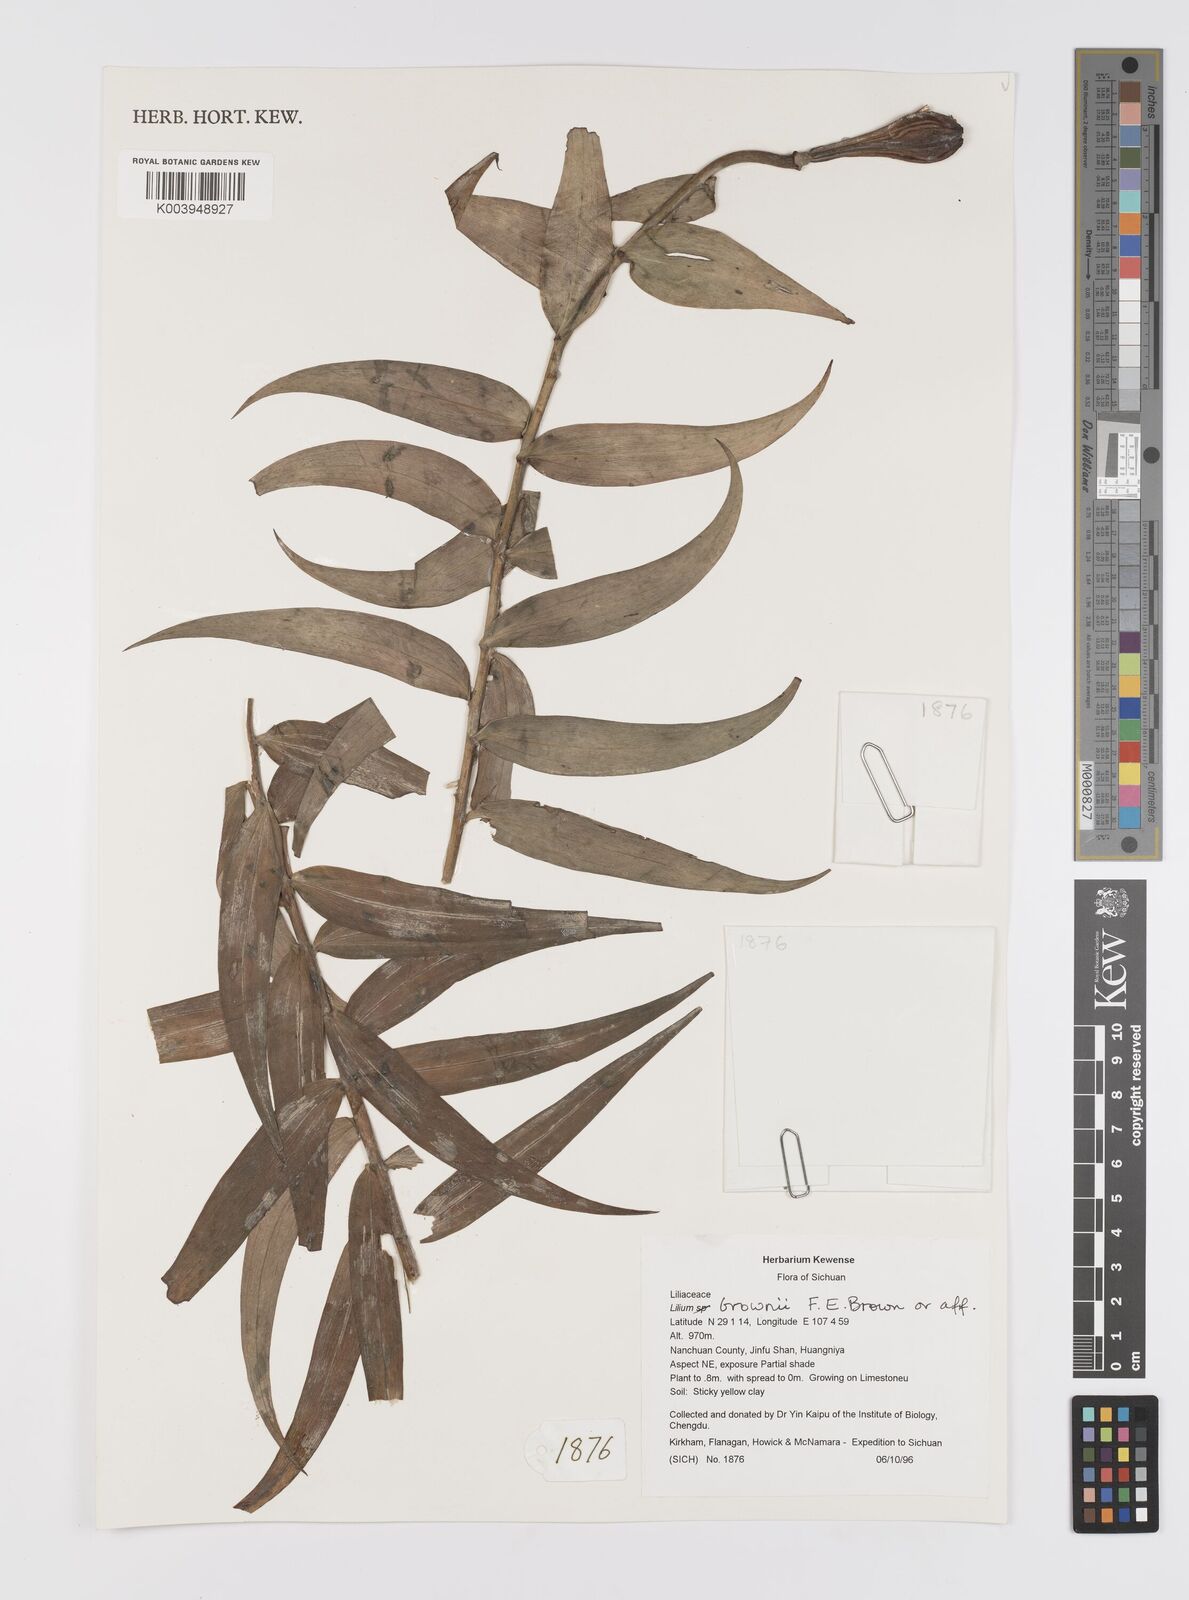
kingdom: Plantae
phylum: Tracheophyta
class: Liliopsida
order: Liliales
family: Liliaceae
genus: Lilium
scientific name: Lilium brownii
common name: Brown's lily
